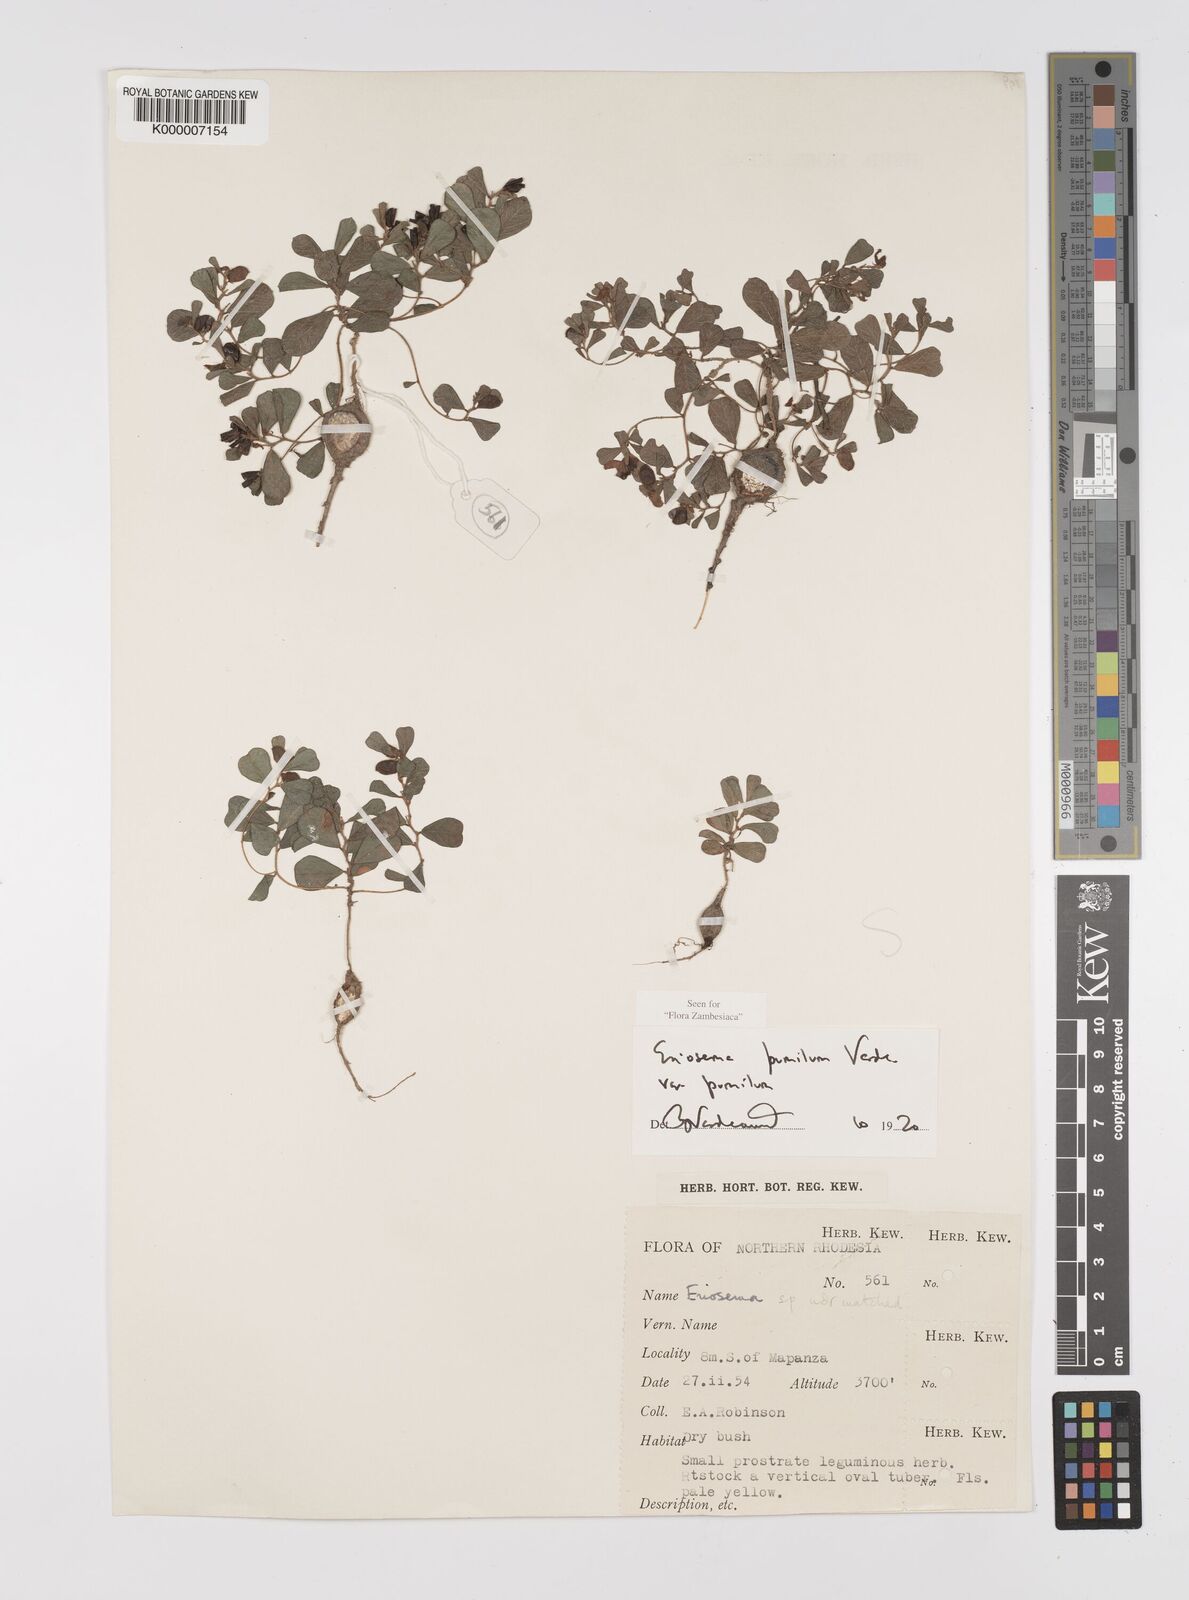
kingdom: Plantae
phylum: Tracheophyta
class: Magnoliopsida
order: Fabales
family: Fabaceae
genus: Eriosema
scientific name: Eriosema pumilum
